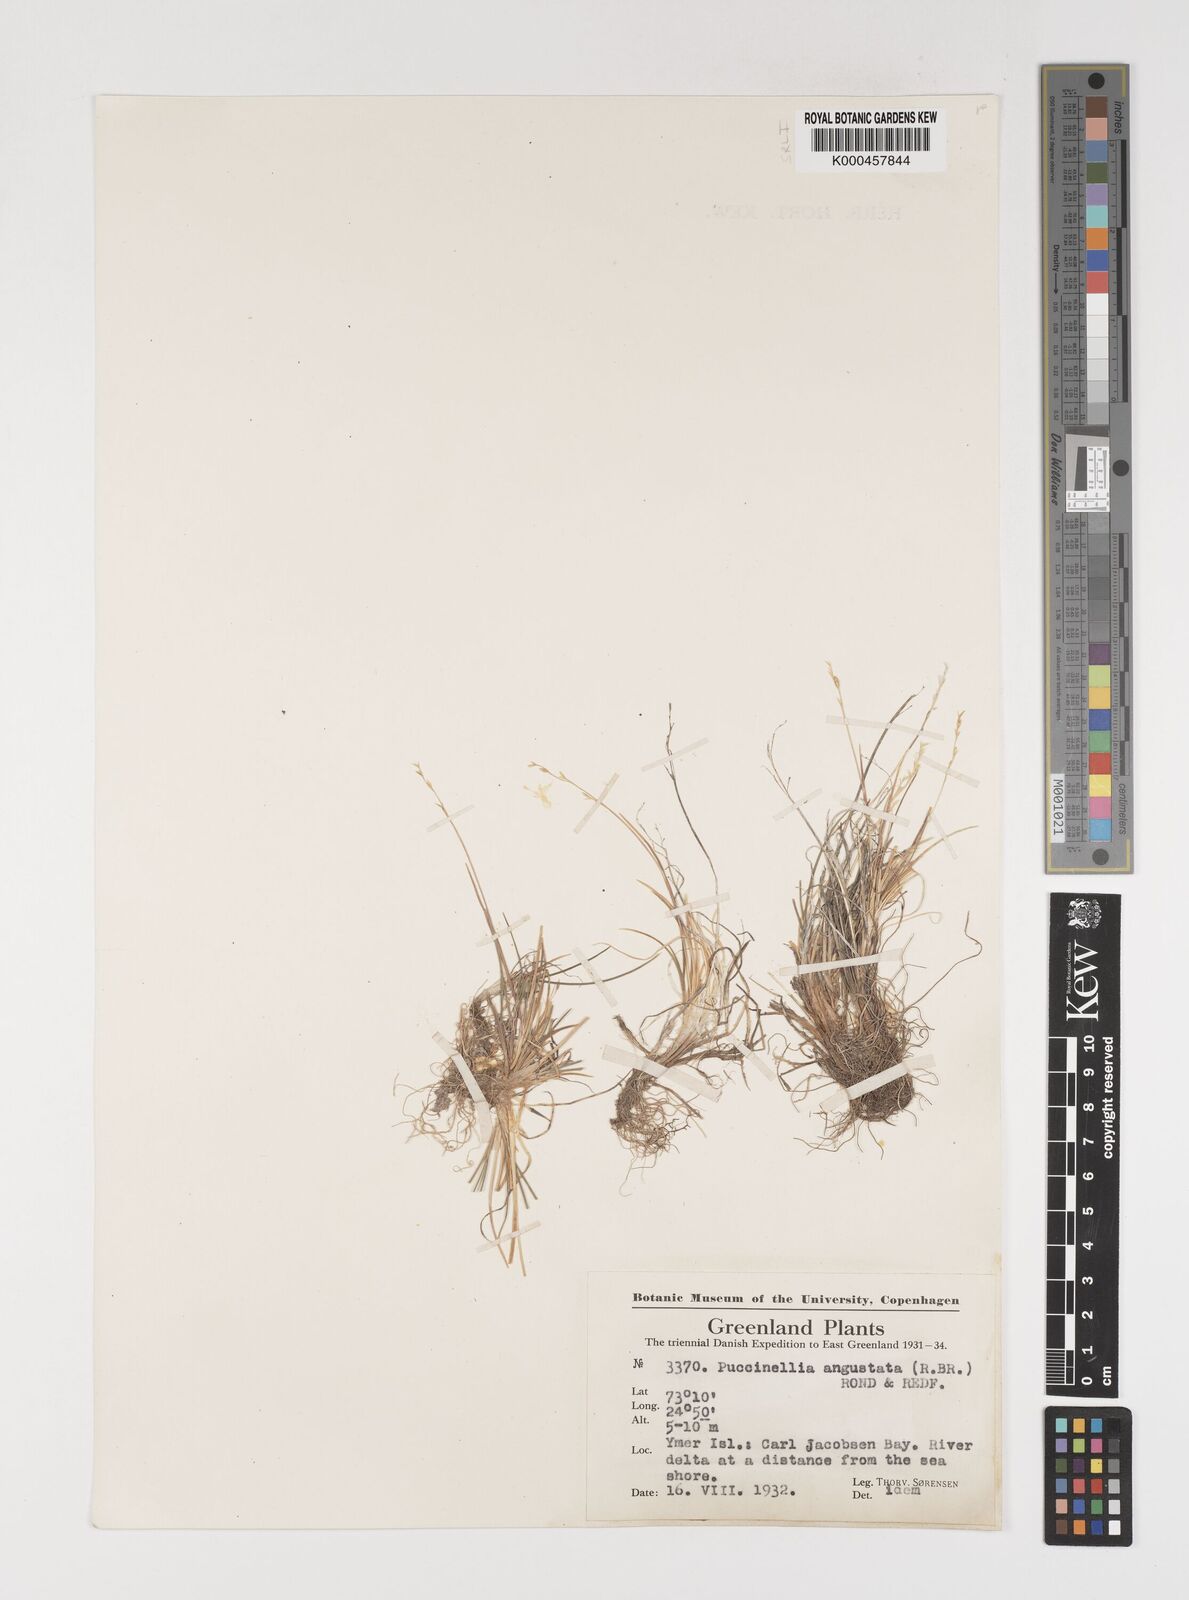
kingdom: Plantae
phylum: Tracheophyta
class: Liliopsida
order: Poales
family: Poaceae
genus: Puccinellia
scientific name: Puccinellia angustata
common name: Narrow alkaligrass
